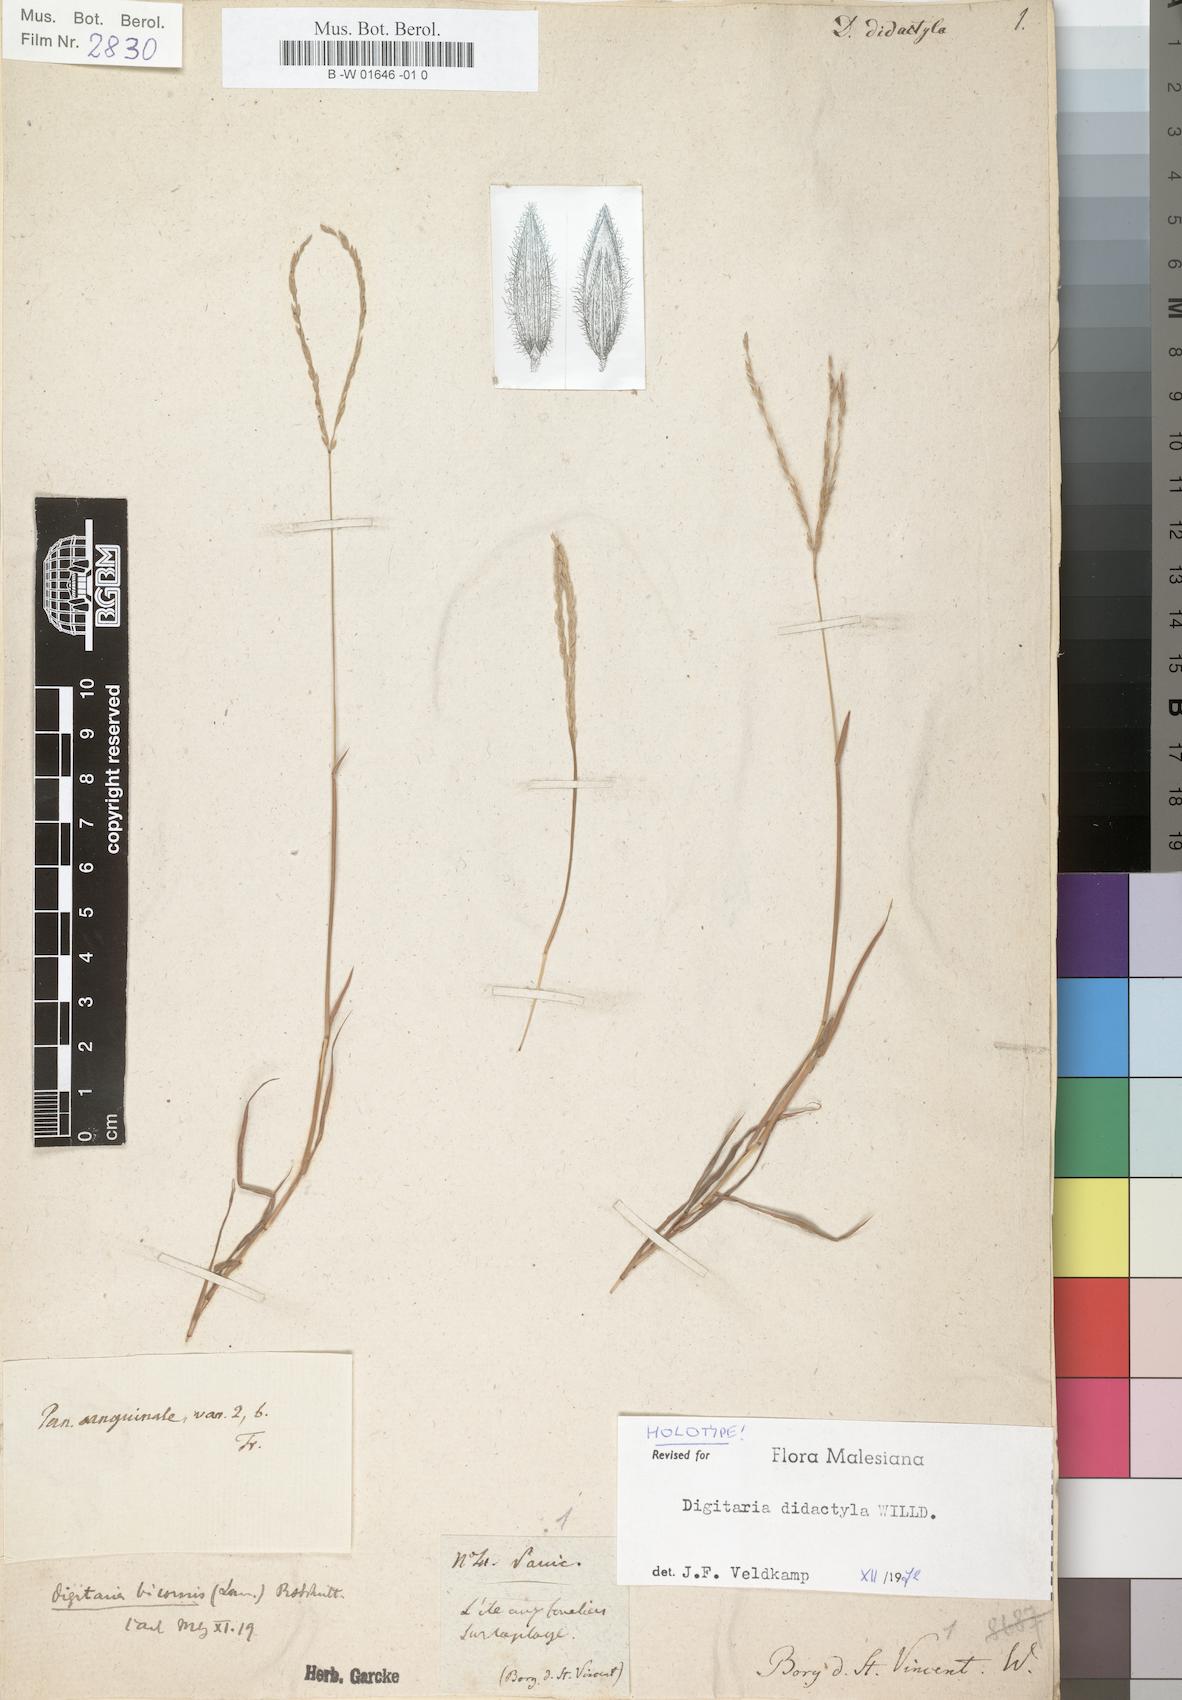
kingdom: Plantae
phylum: Tracheophyta
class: Liliopsida
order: Poales
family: Poaceae
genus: Digitaria
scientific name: Digitaria didactyla
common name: Blue couch
